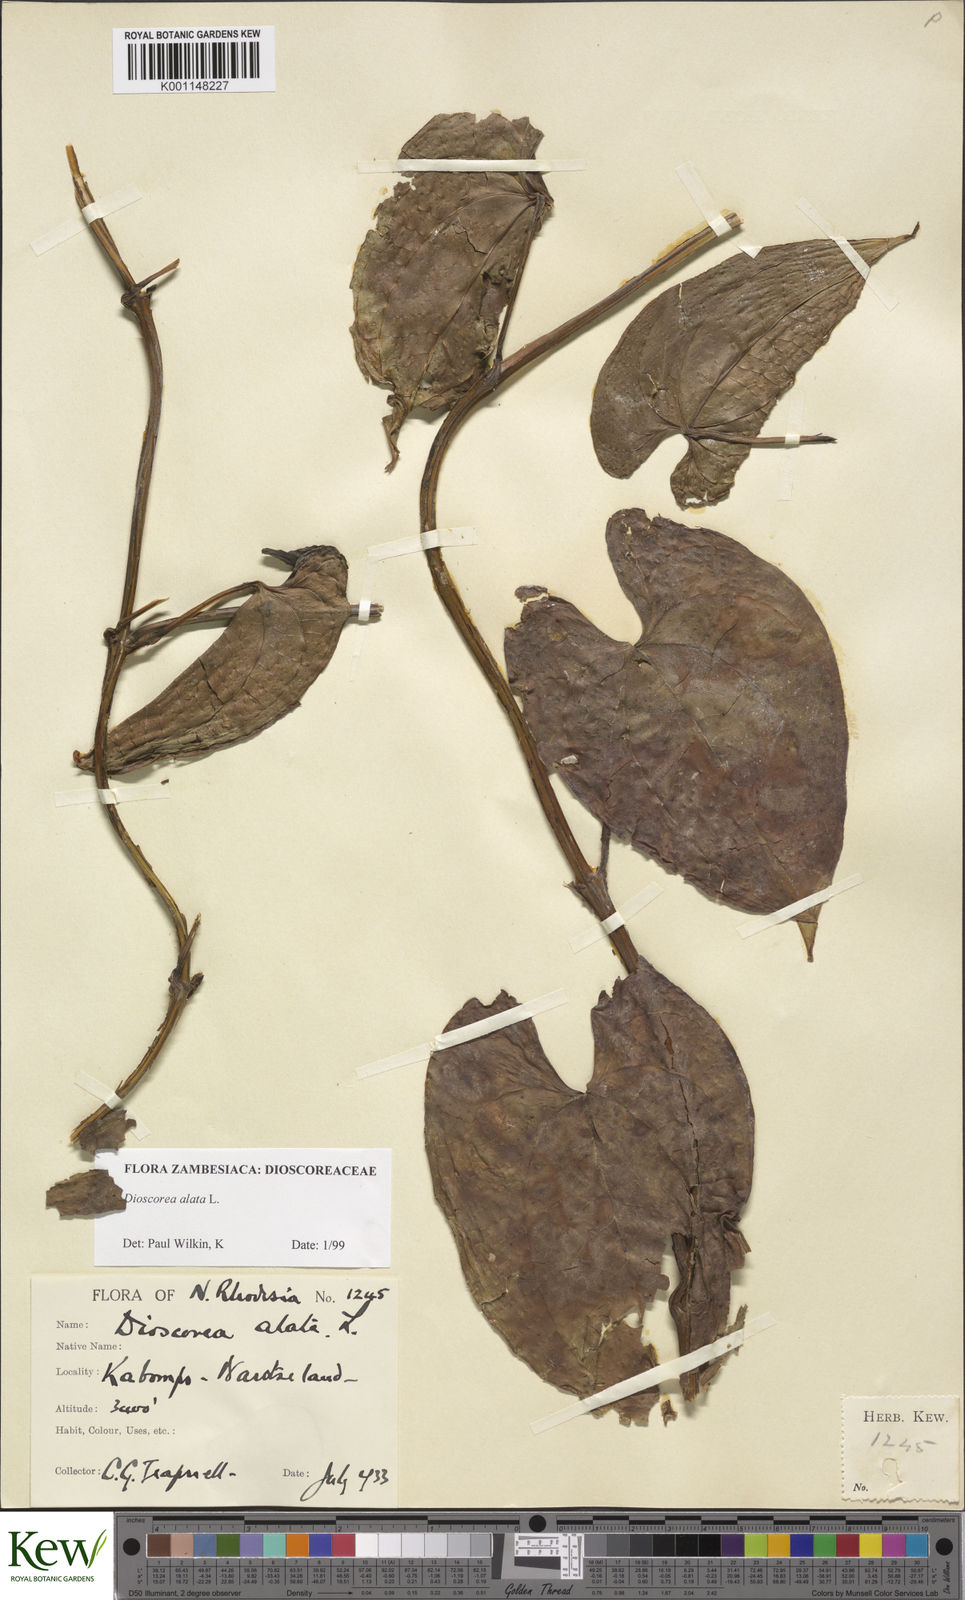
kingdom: Plantae
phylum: Tracheophyta
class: Liliopsida
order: Dioscoreales
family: Dioscoreaceae
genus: Dioscorea
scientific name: Dioscorea alata
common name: Water yam
